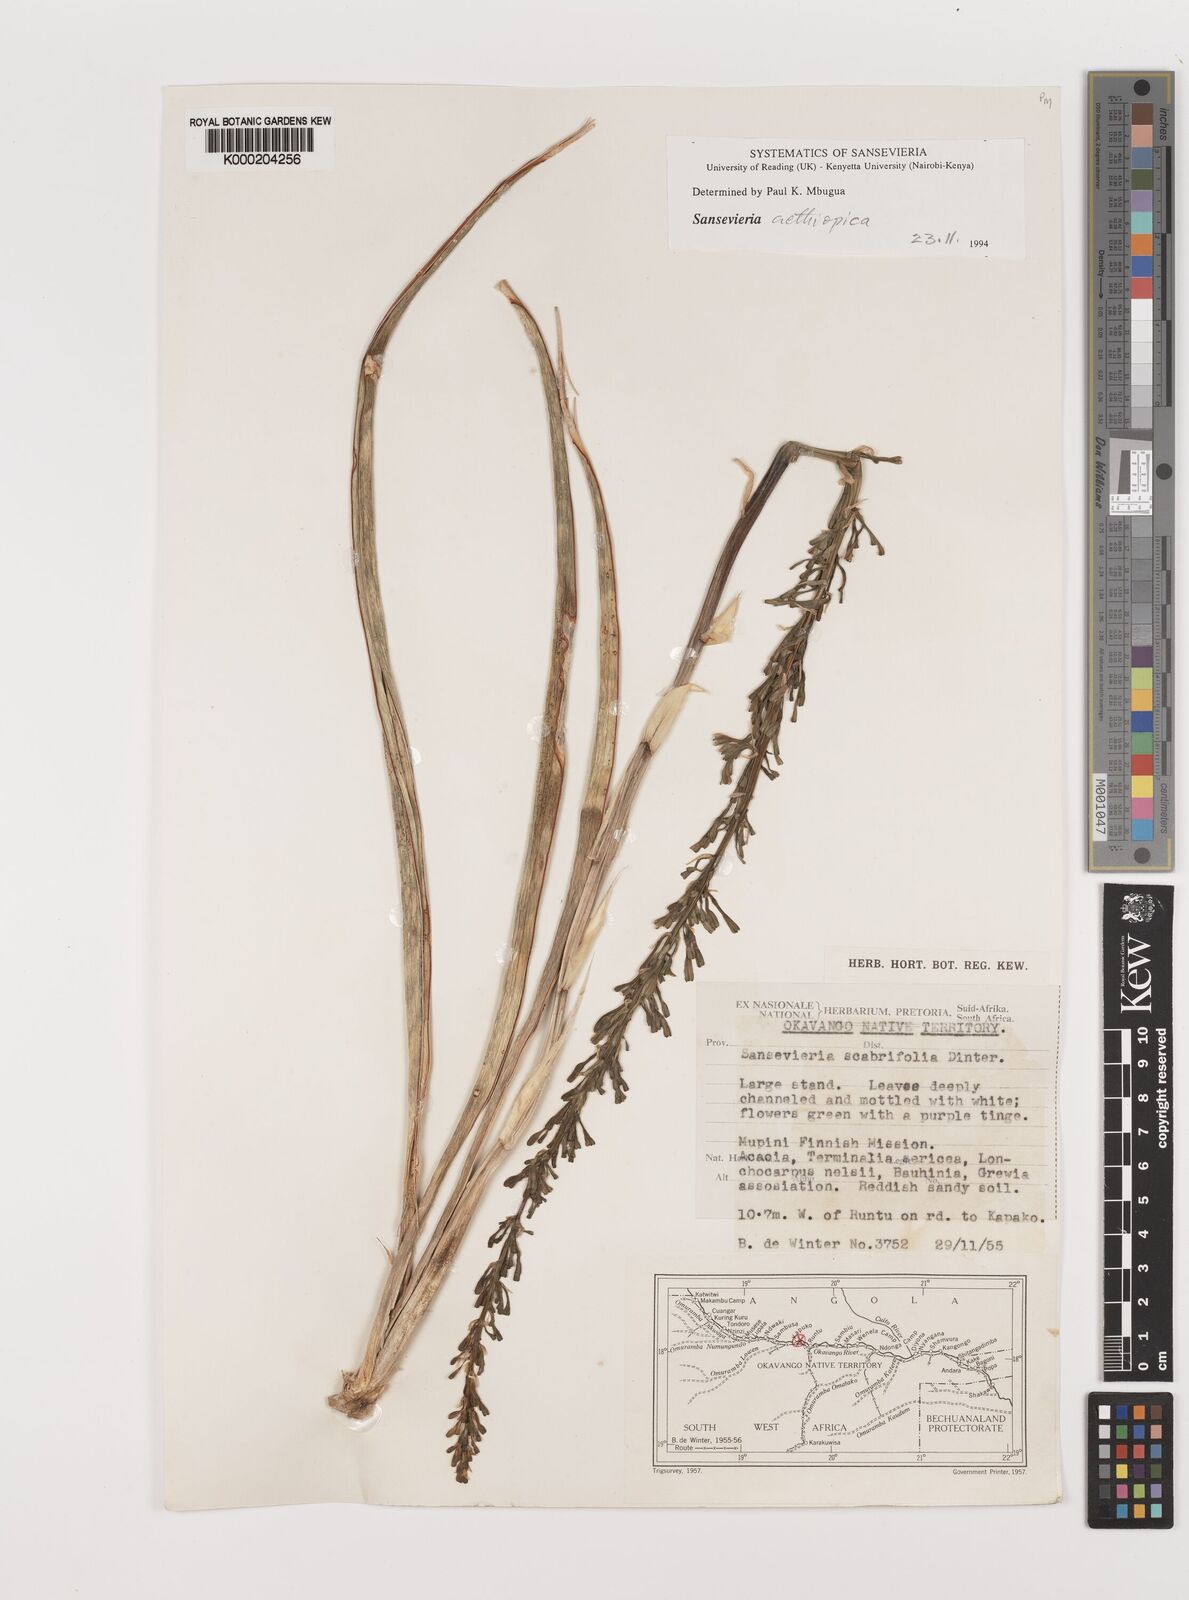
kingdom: Plantae
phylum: Tracheophyta
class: Liliopsida
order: Asparagales
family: Asparagaceae
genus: Dracaena
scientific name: Dracaena aethiopica
